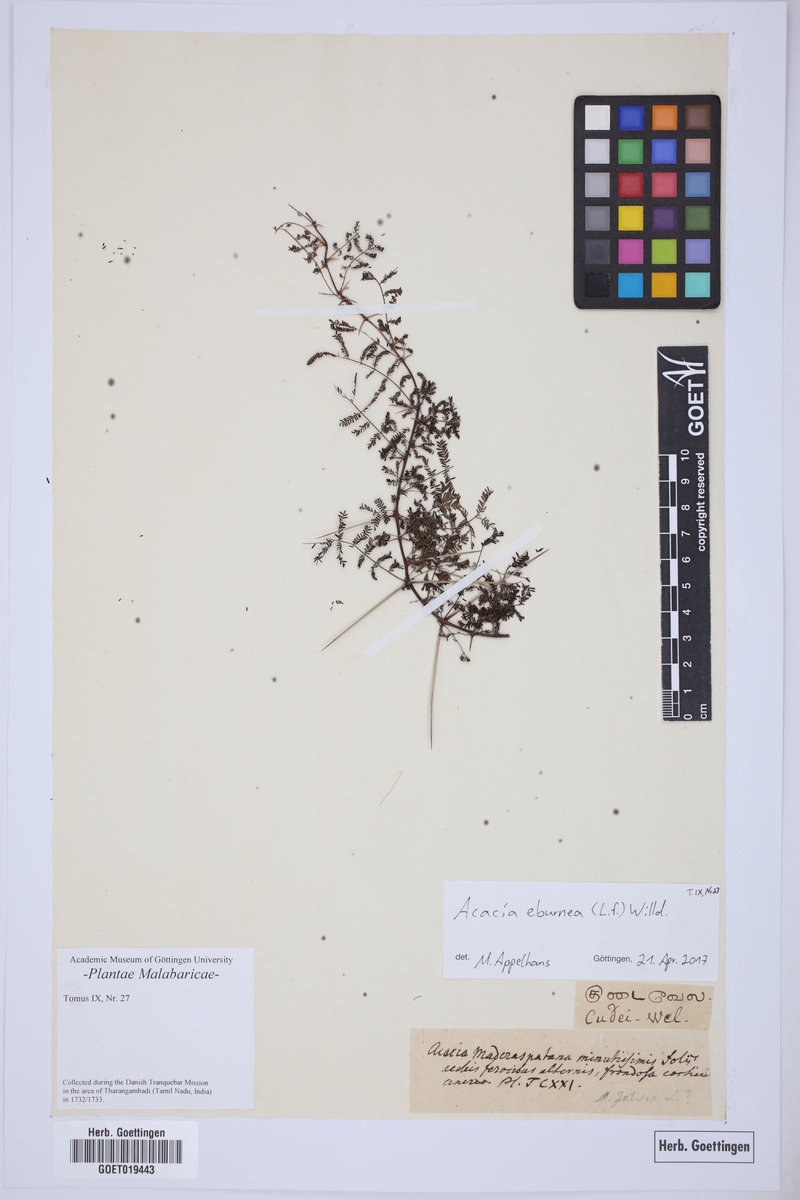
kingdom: Plantae
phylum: Tracheophyta
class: Magnoliopsida
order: Fabales
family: Fabaceae
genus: Vachellia
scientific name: Vachellia eburnea
